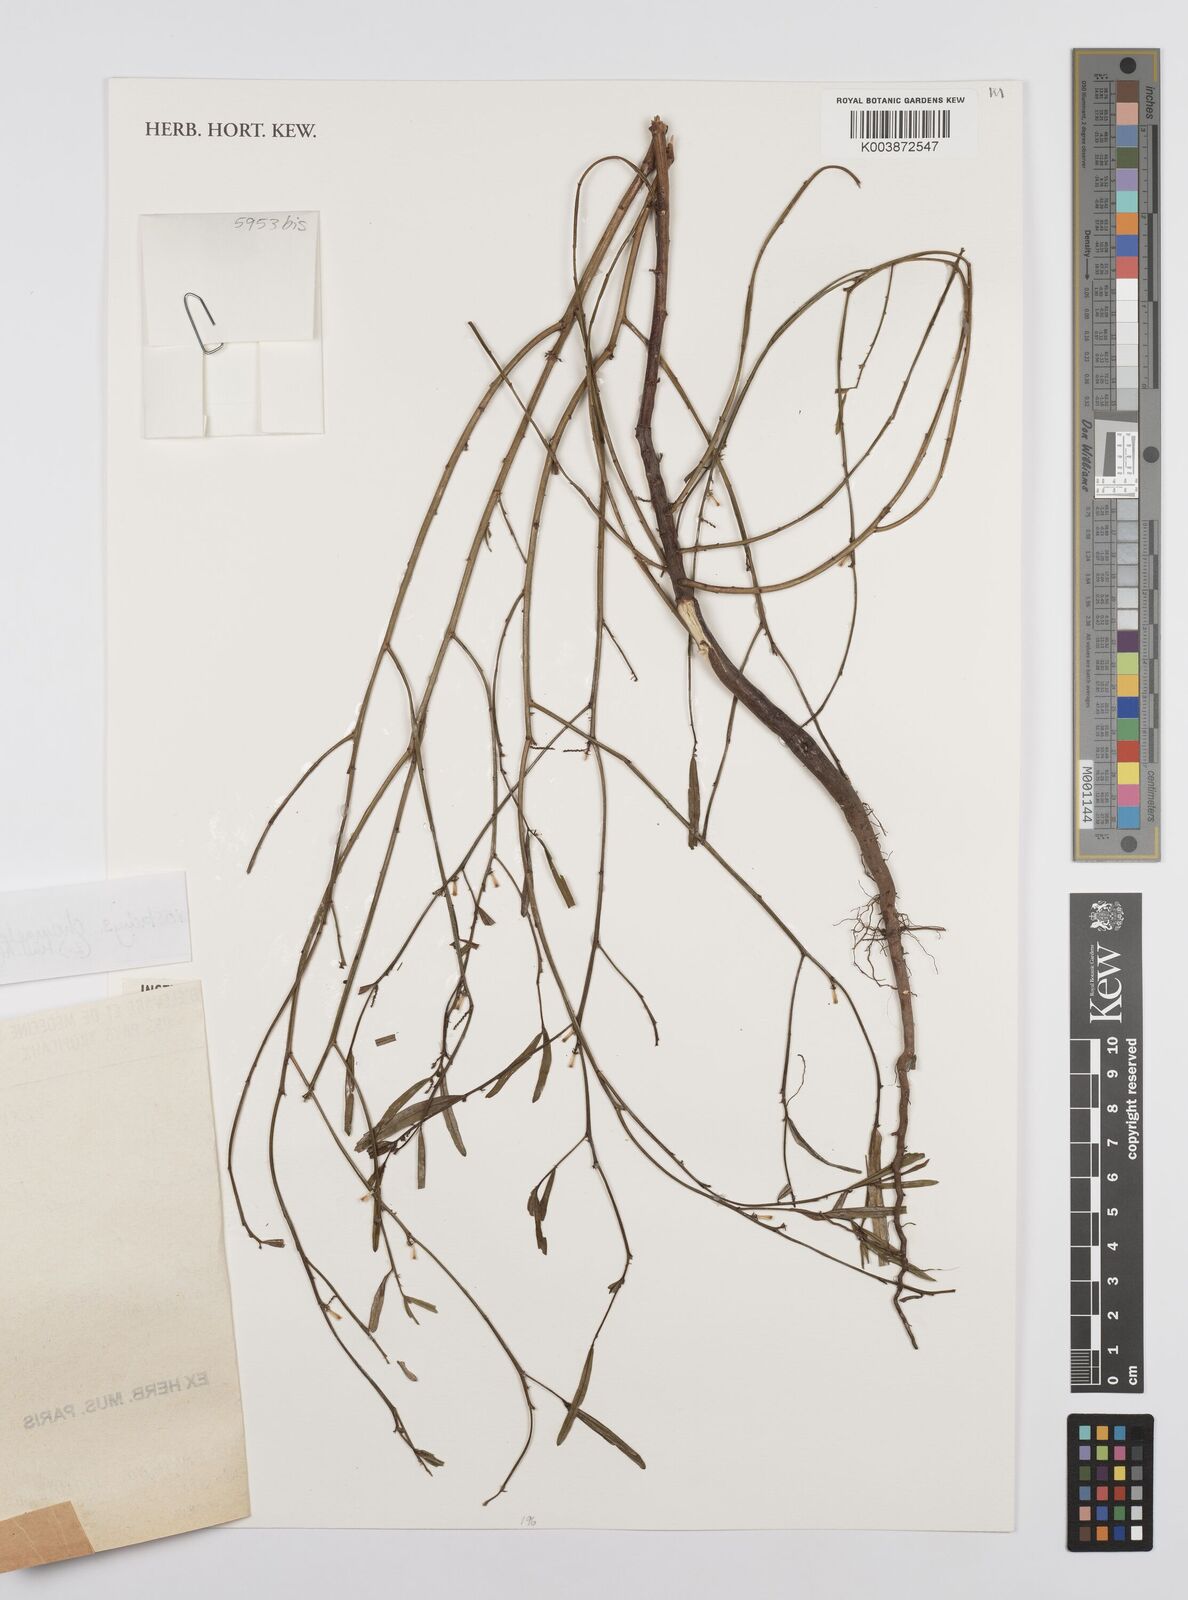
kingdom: Plantae
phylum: Tracheophyta
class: Magnoliopsida
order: Malpighiales
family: Euphorbiaceae
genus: Microstachys
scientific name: Microstachys chamaelea
